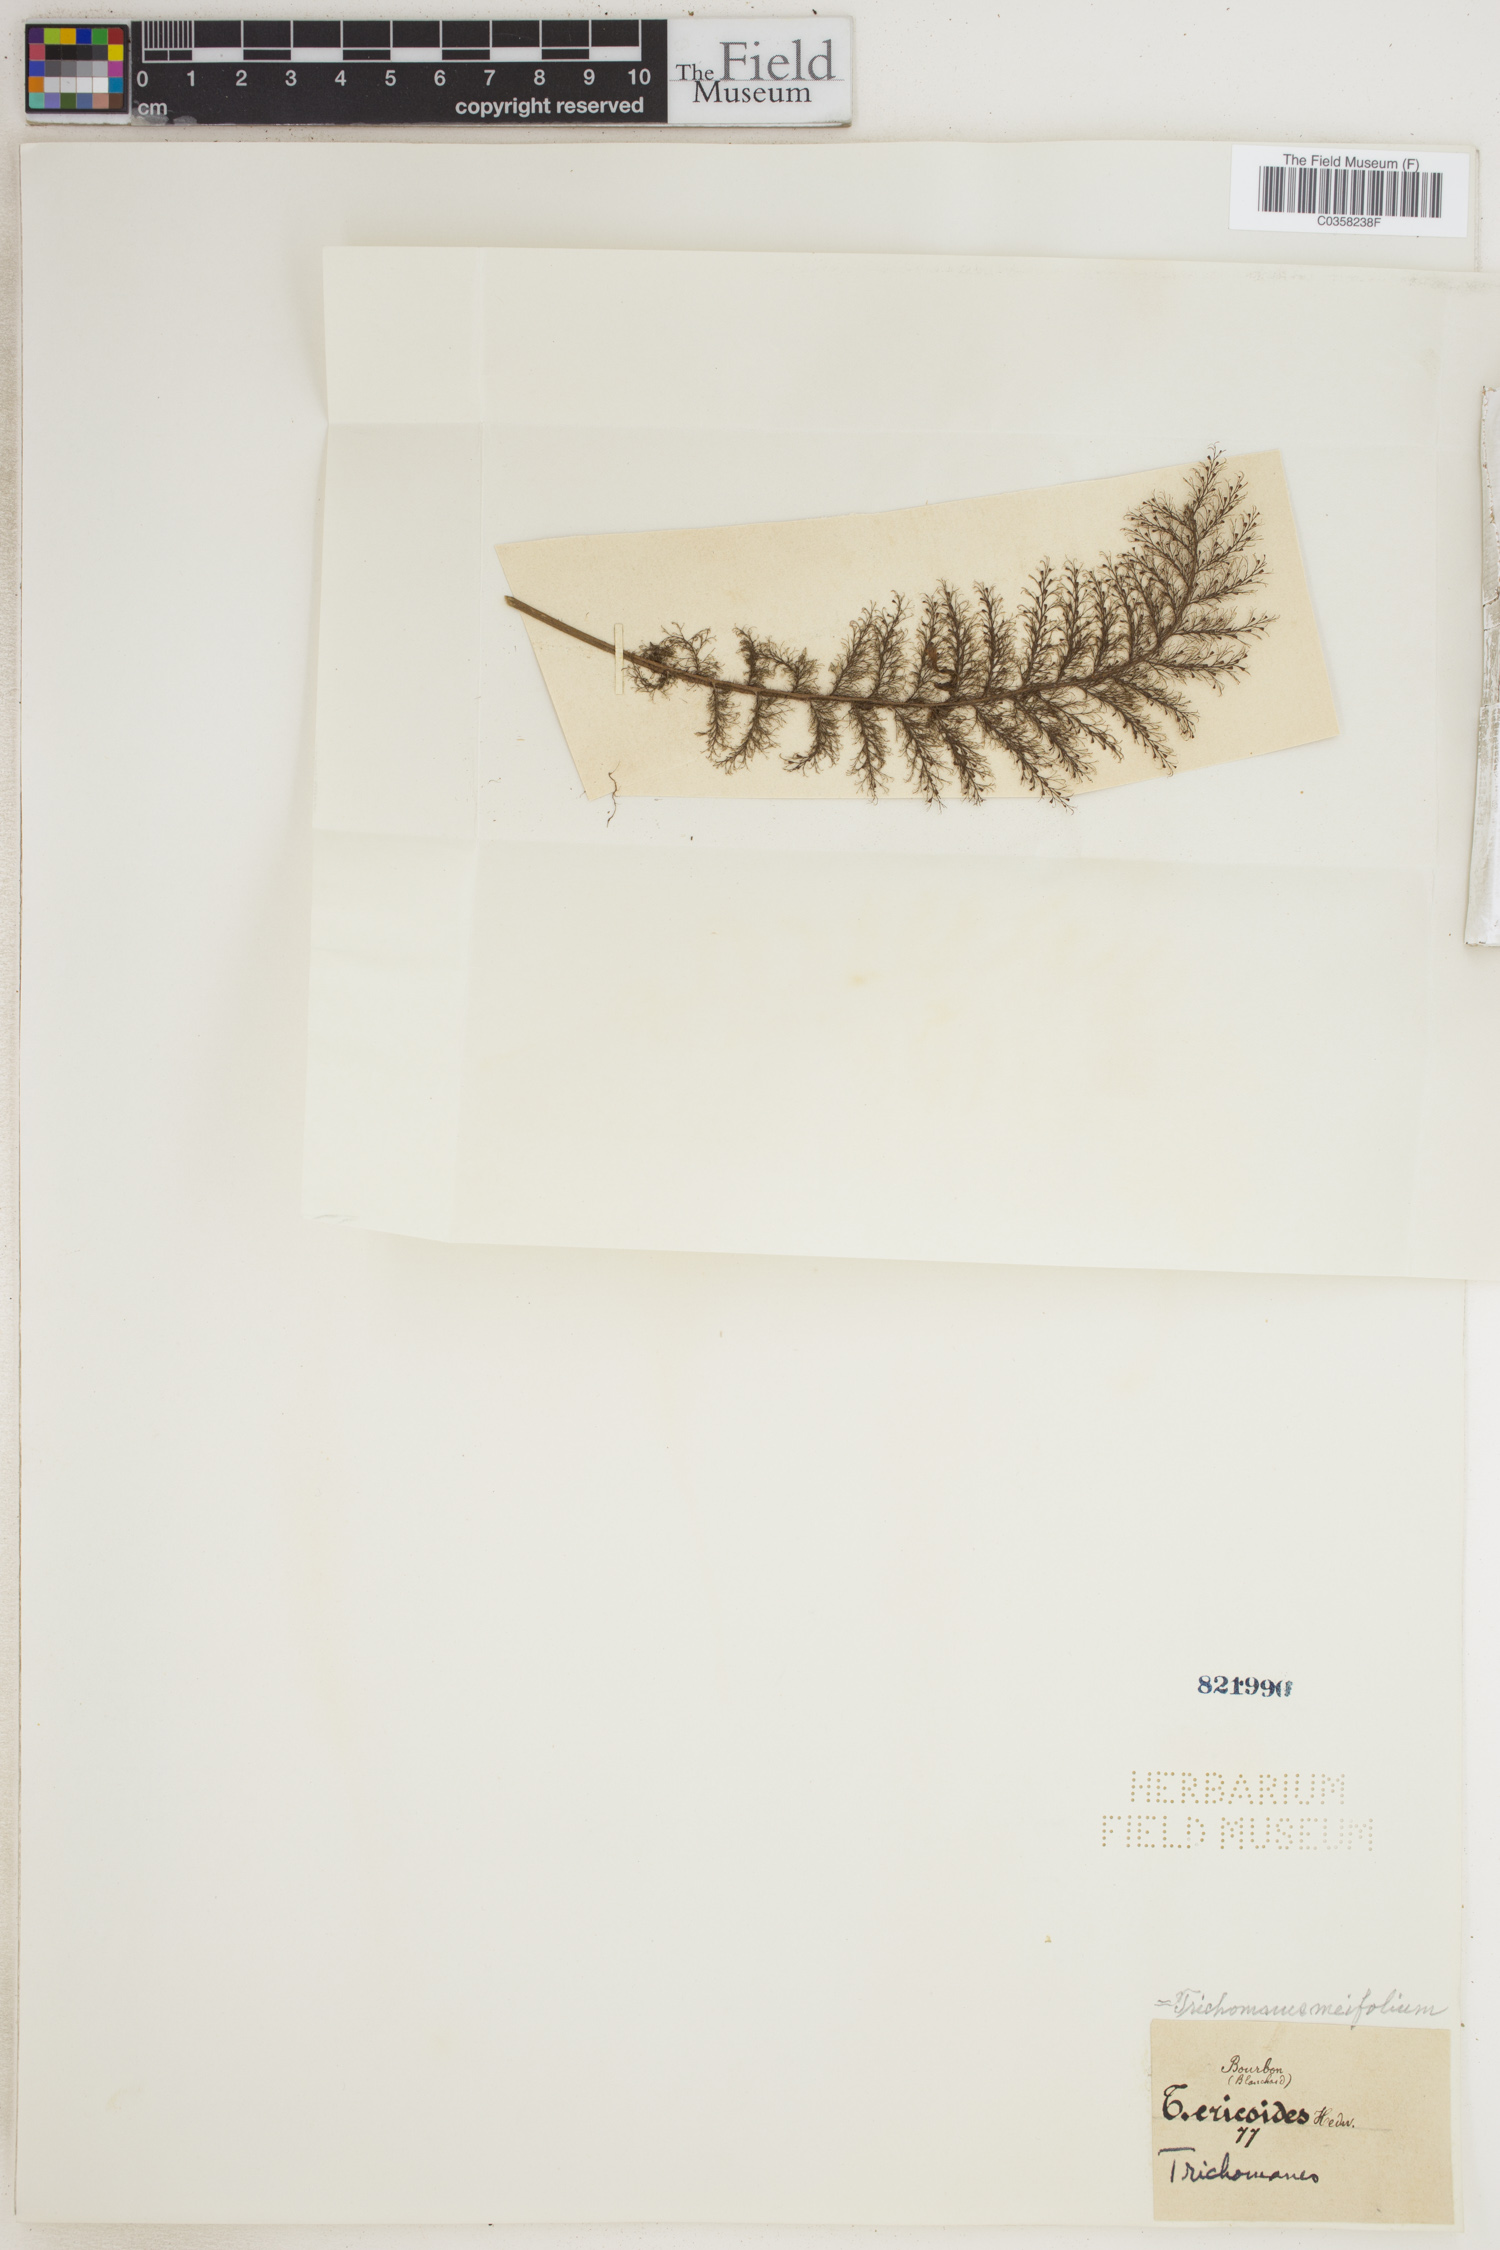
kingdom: Plantae
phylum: Tracheophyta
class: Polypodiopsida
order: Hymenophyllales
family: Hymenophyllaceae
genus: Abrodictyum
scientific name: Abrodictyum parviflorum
